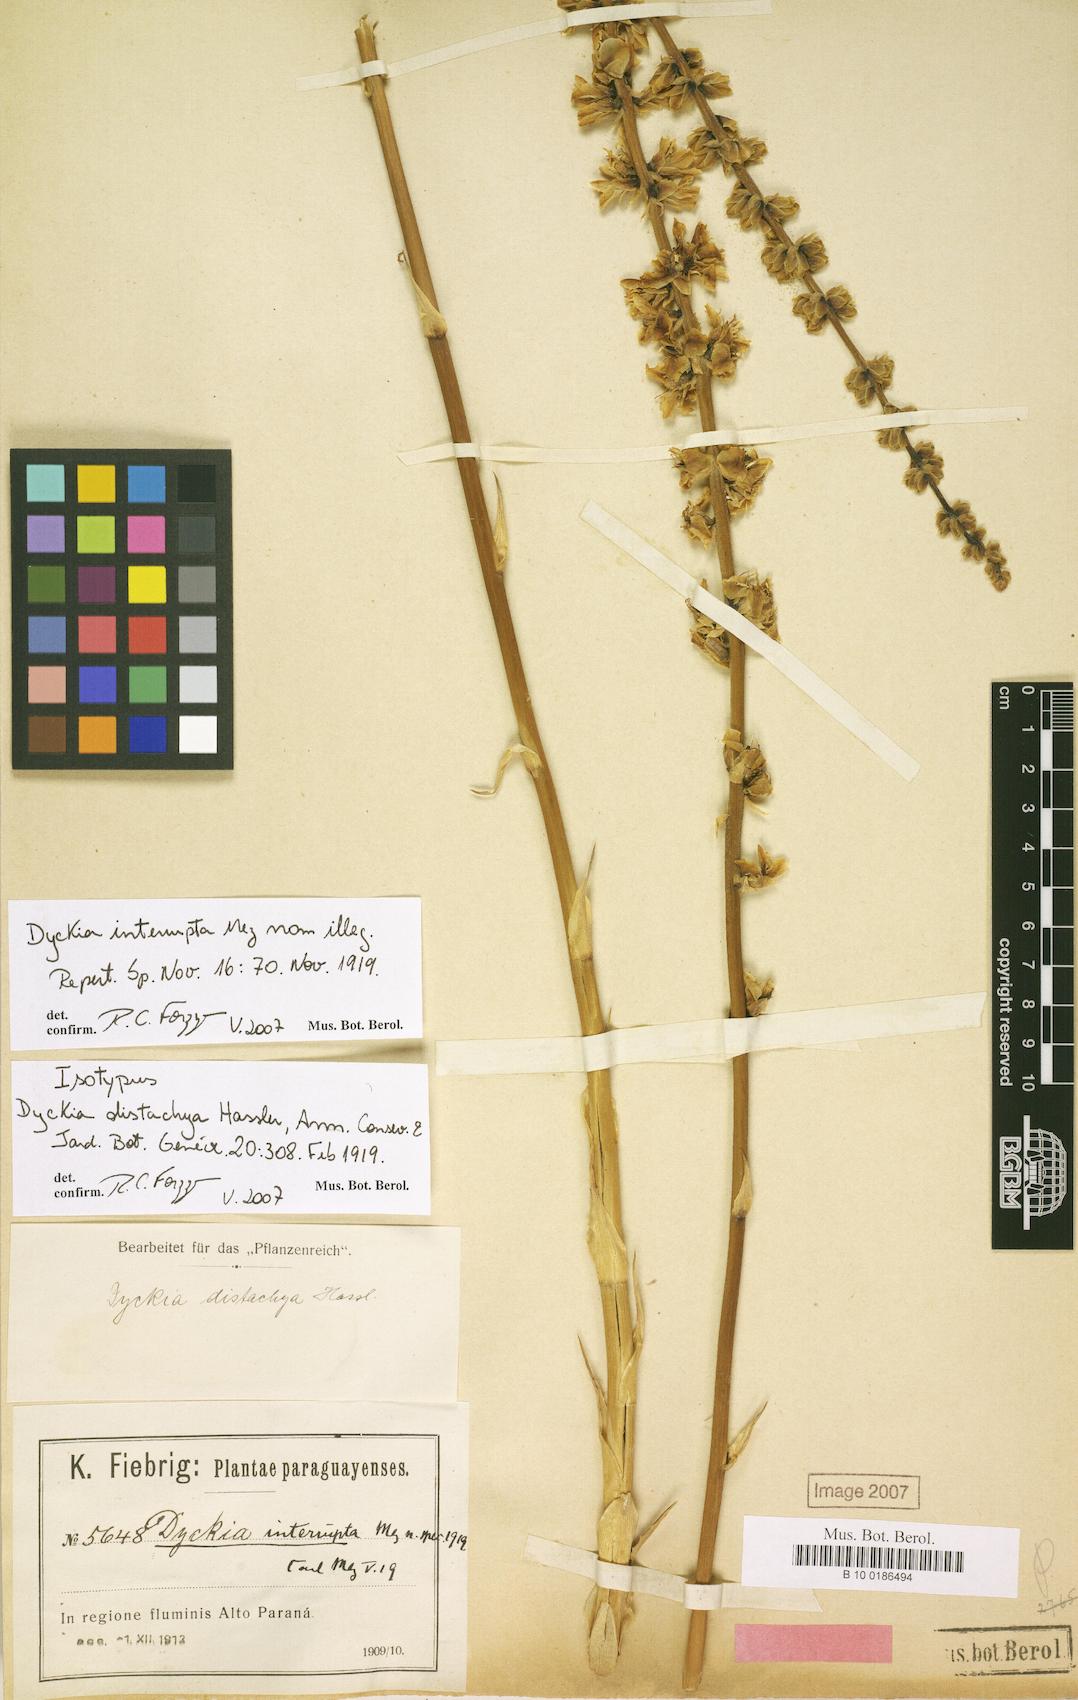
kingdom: Plantae
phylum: Tracheophyta
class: Liliopsida
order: Poales
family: Bromeliaceae
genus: Dyckia
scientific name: Dyckia distachya
